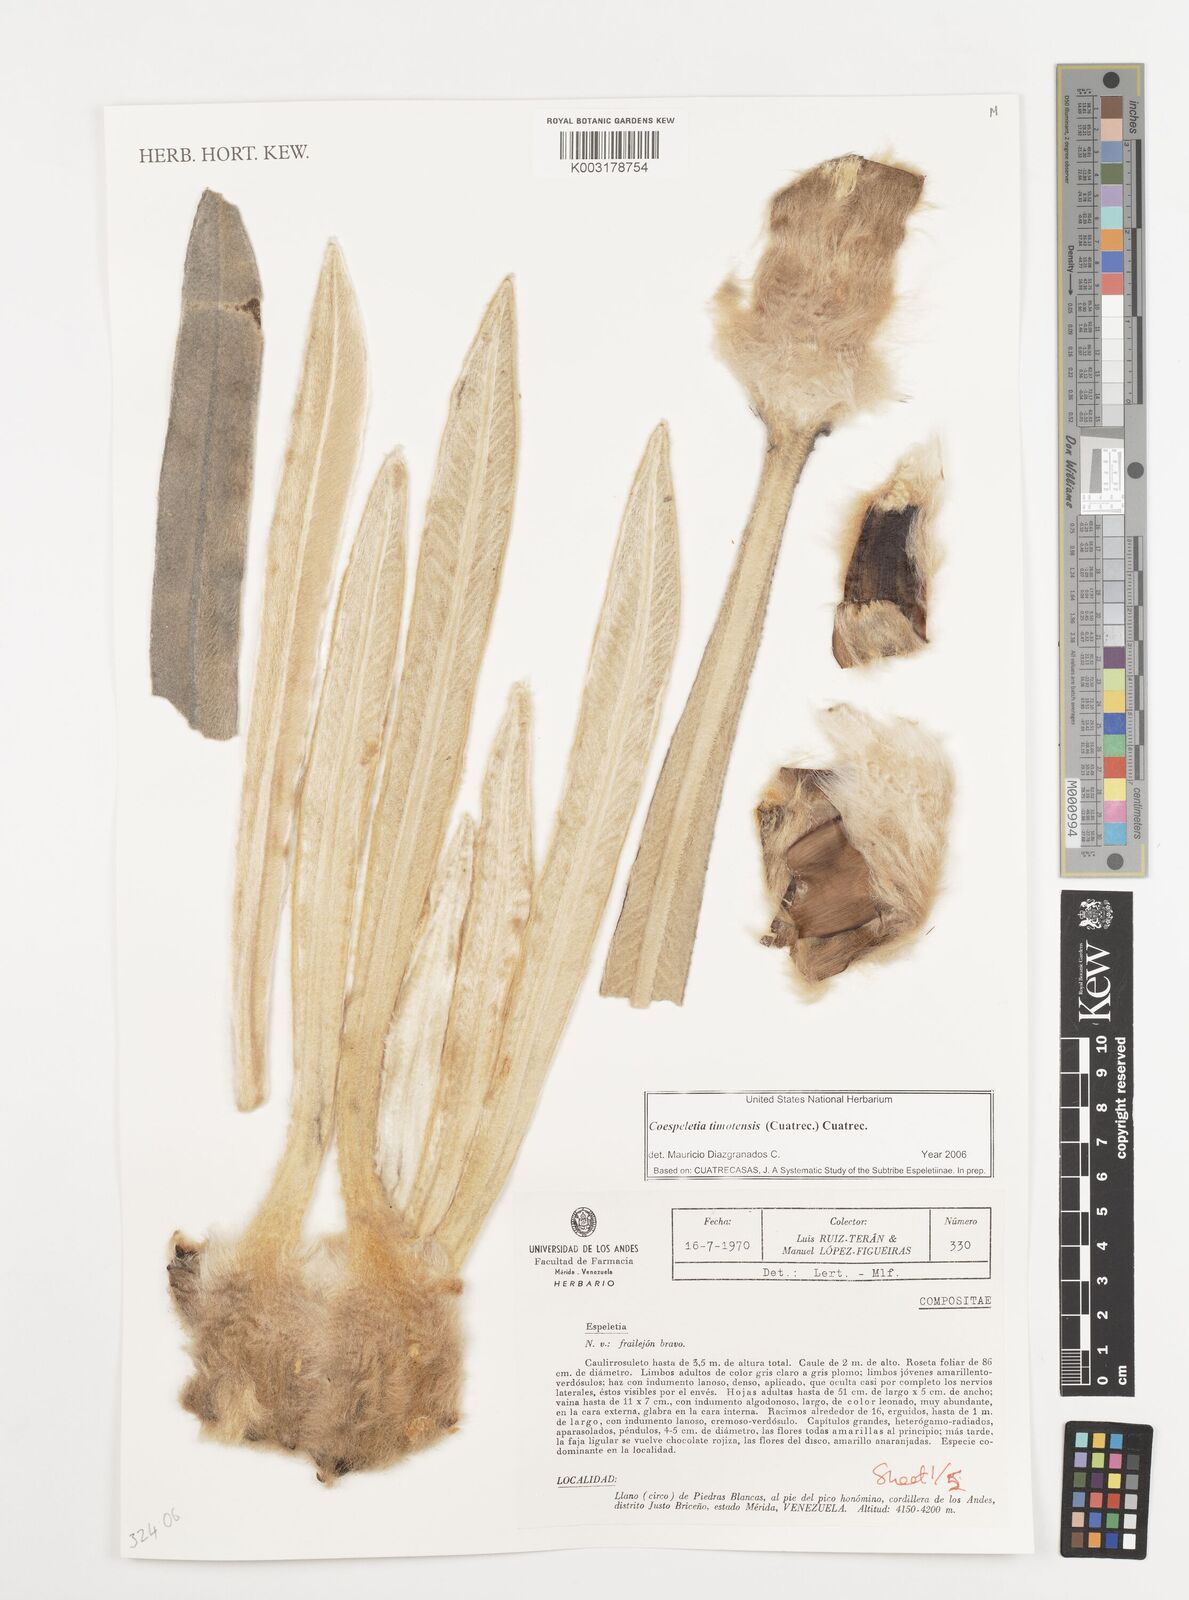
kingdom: Plantae
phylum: Tracheophyta
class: Magnoliopsida
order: Asterales
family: Asteraceae
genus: Espeletia
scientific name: Espeletia timotensis
